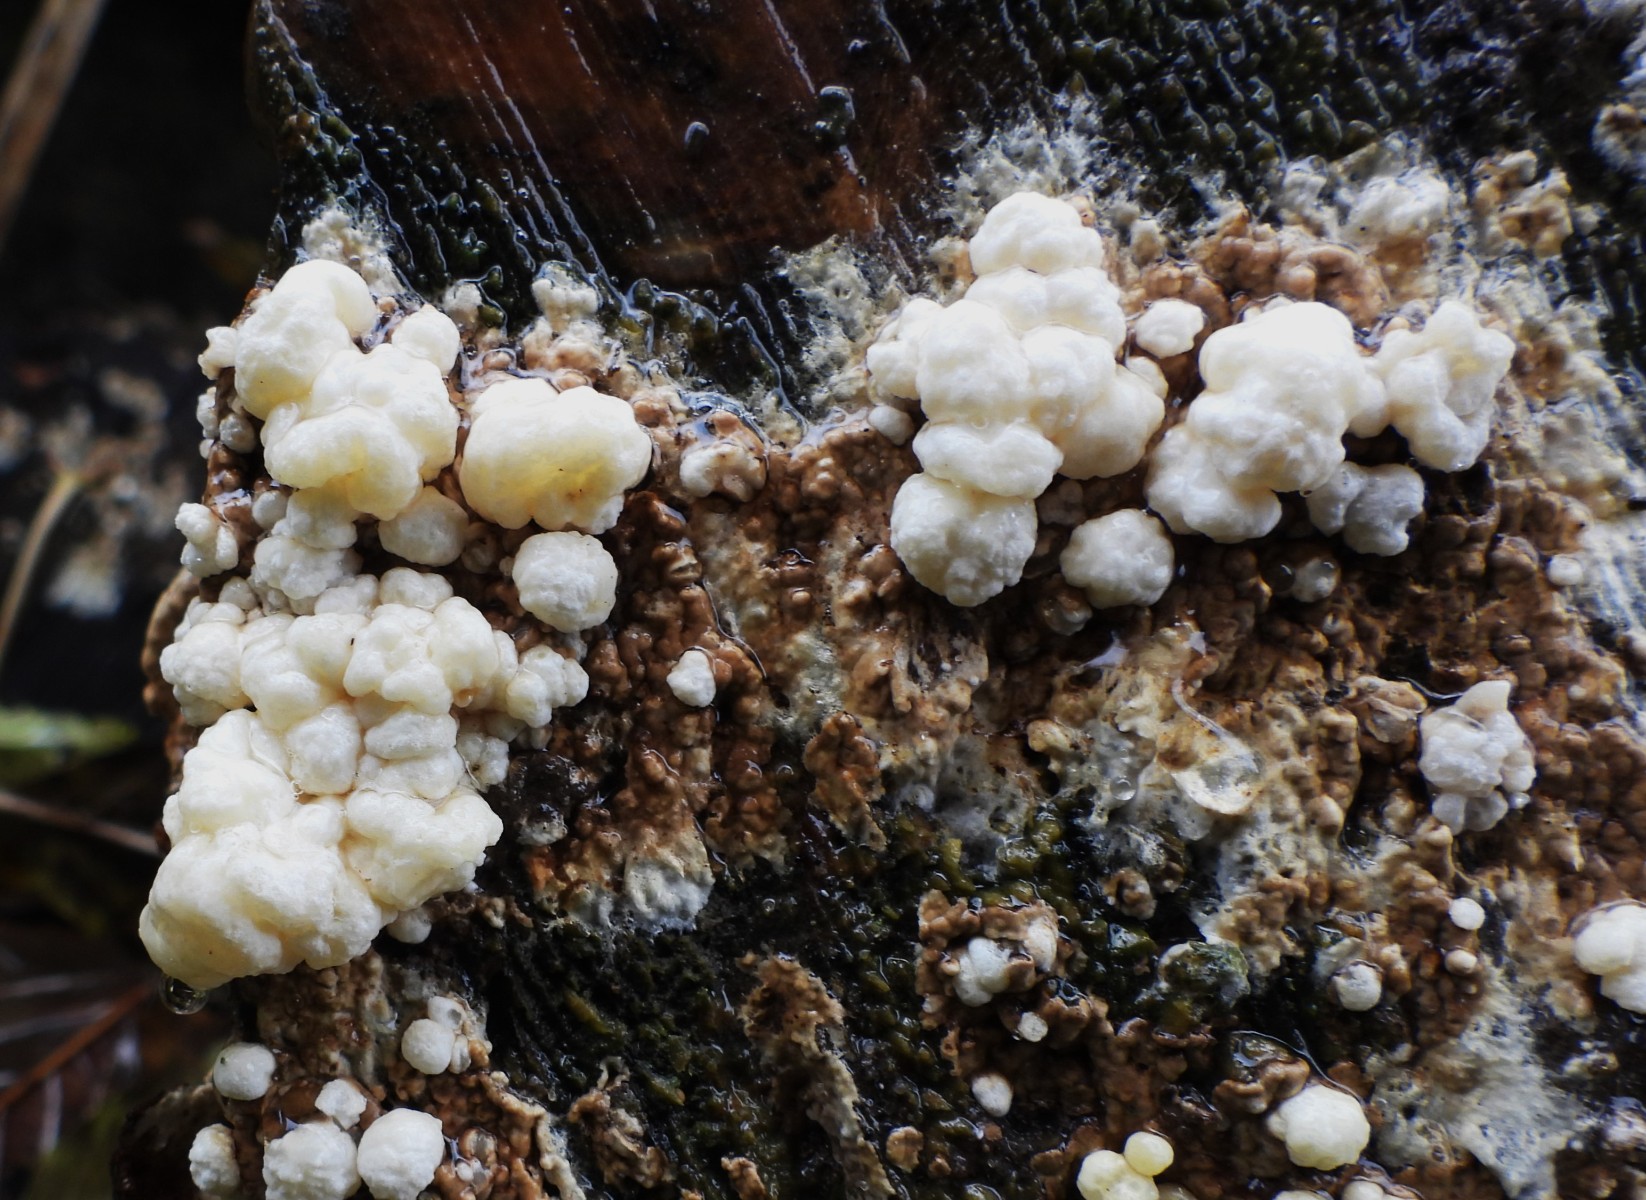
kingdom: Fungi
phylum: Ascomycota
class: Sordariomycetes
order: Xylariales
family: Hypoxylaceae
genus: Nodulisporium
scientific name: Nodulisporium cecidiogenes
